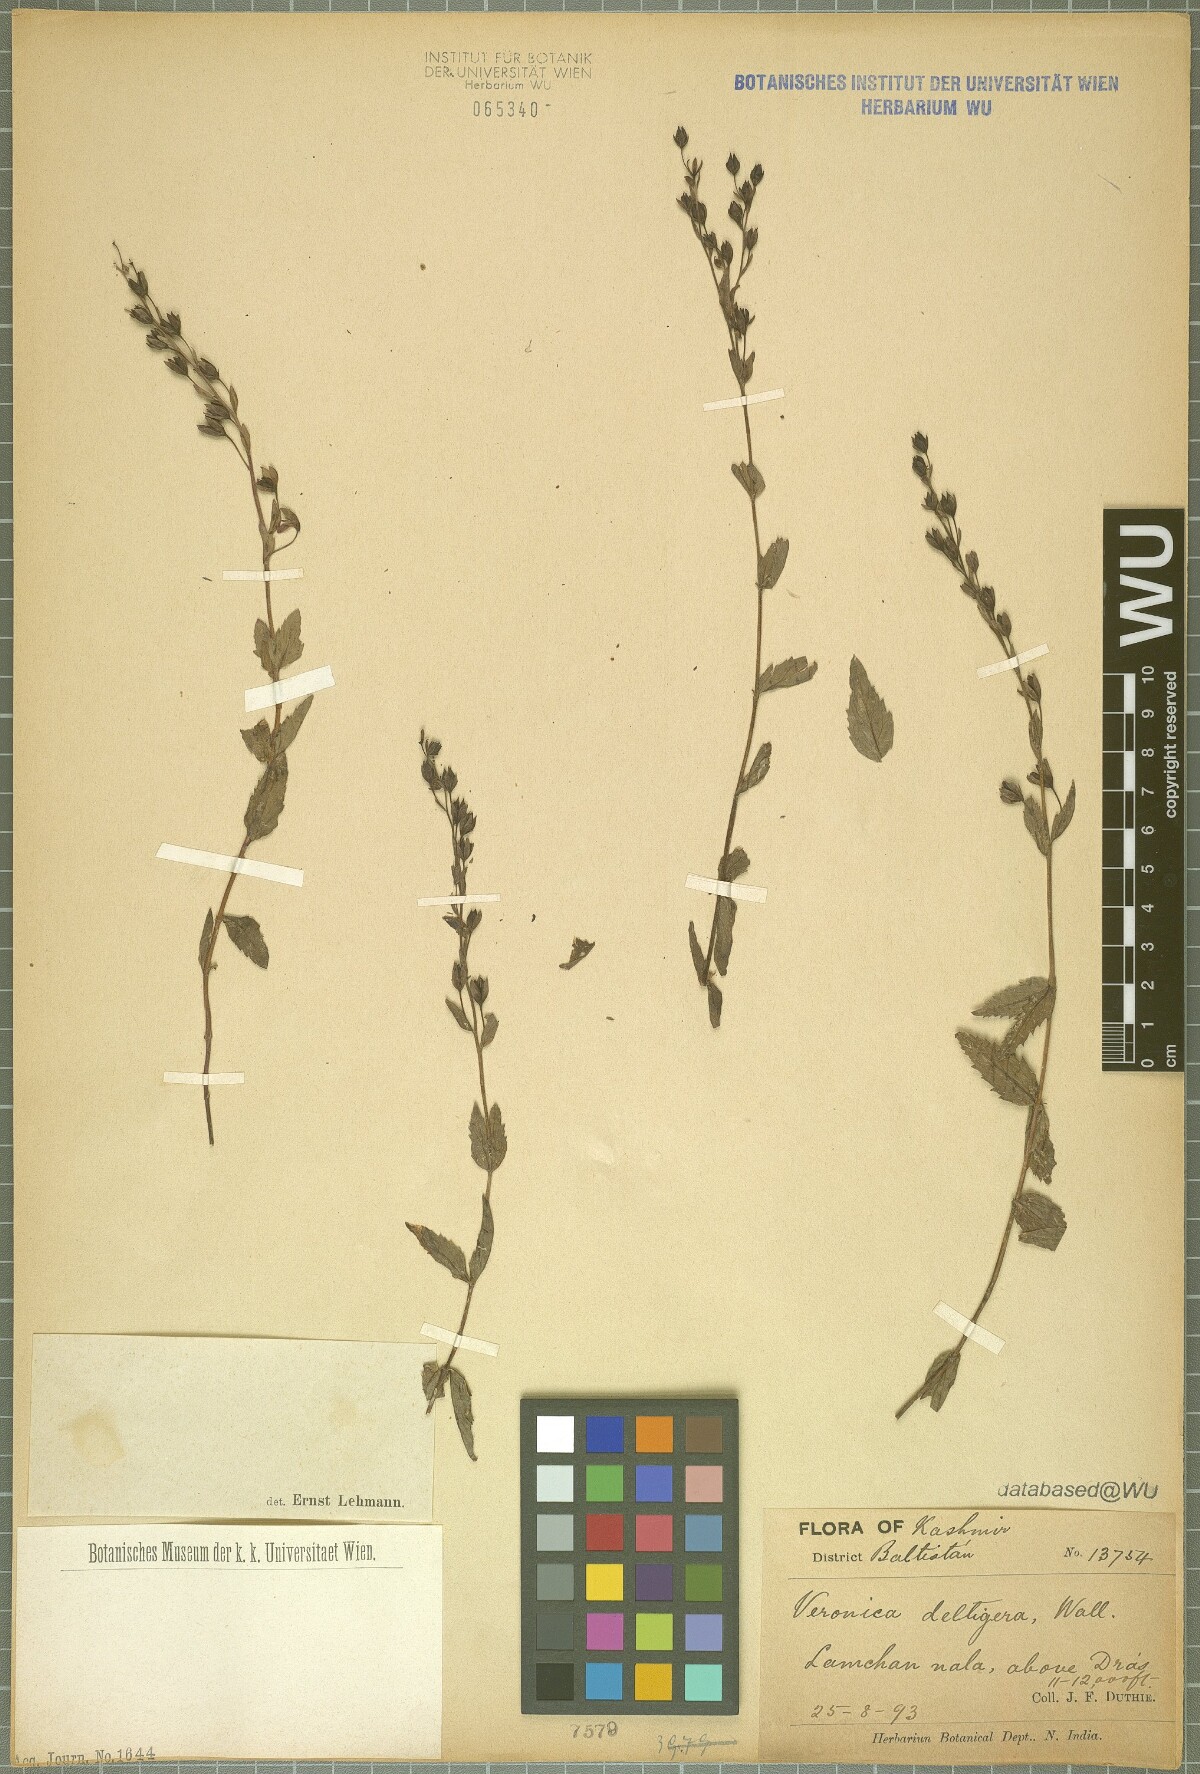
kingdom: Plantae
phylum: Tracheophyta
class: Magnoliopsida
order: Lamiales
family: Plantaginaceae
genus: Veronica
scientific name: Veronica deltigera
